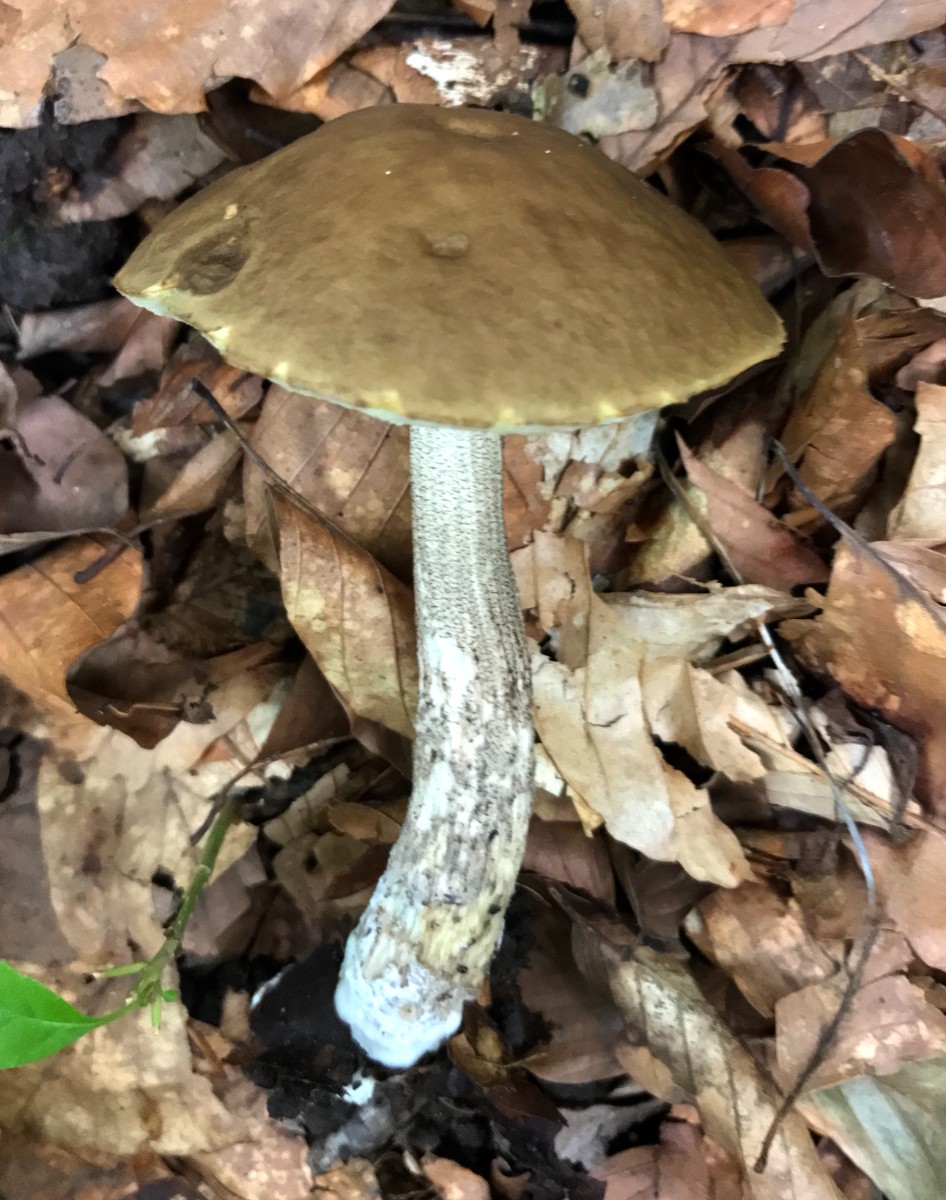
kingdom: Fungi
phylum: Basidiomycota
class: Agaricomycetes
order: Boletales
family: Boletaceae
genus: Leccinellum
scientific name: Leccinellum pseudoscabrum
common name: avnbøg-skælrørhat
